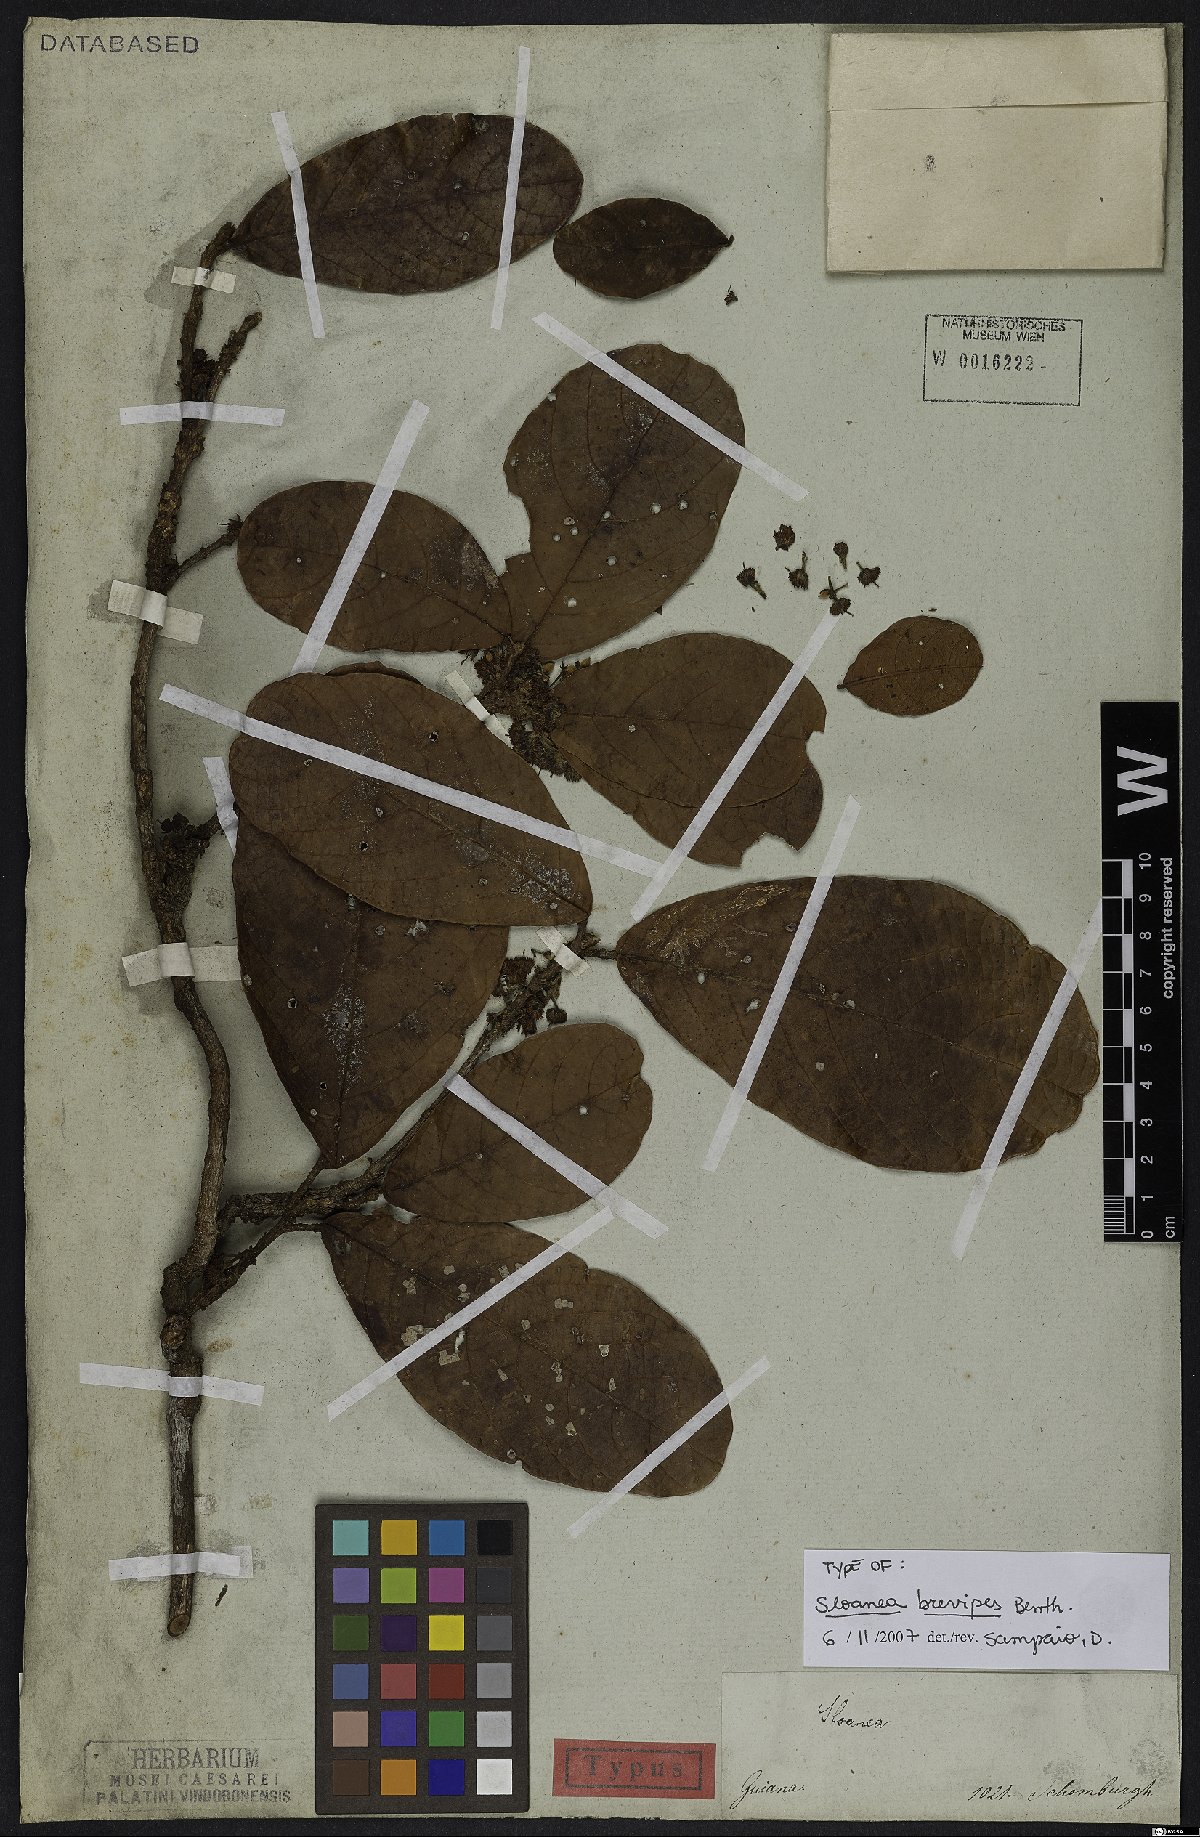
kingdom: Plantae
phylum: Tracheophyta
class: Magnoliopsida
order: Oxalidales
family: Elaeocarpaceae
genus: Sloanea
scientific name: Sloanea brevipes
